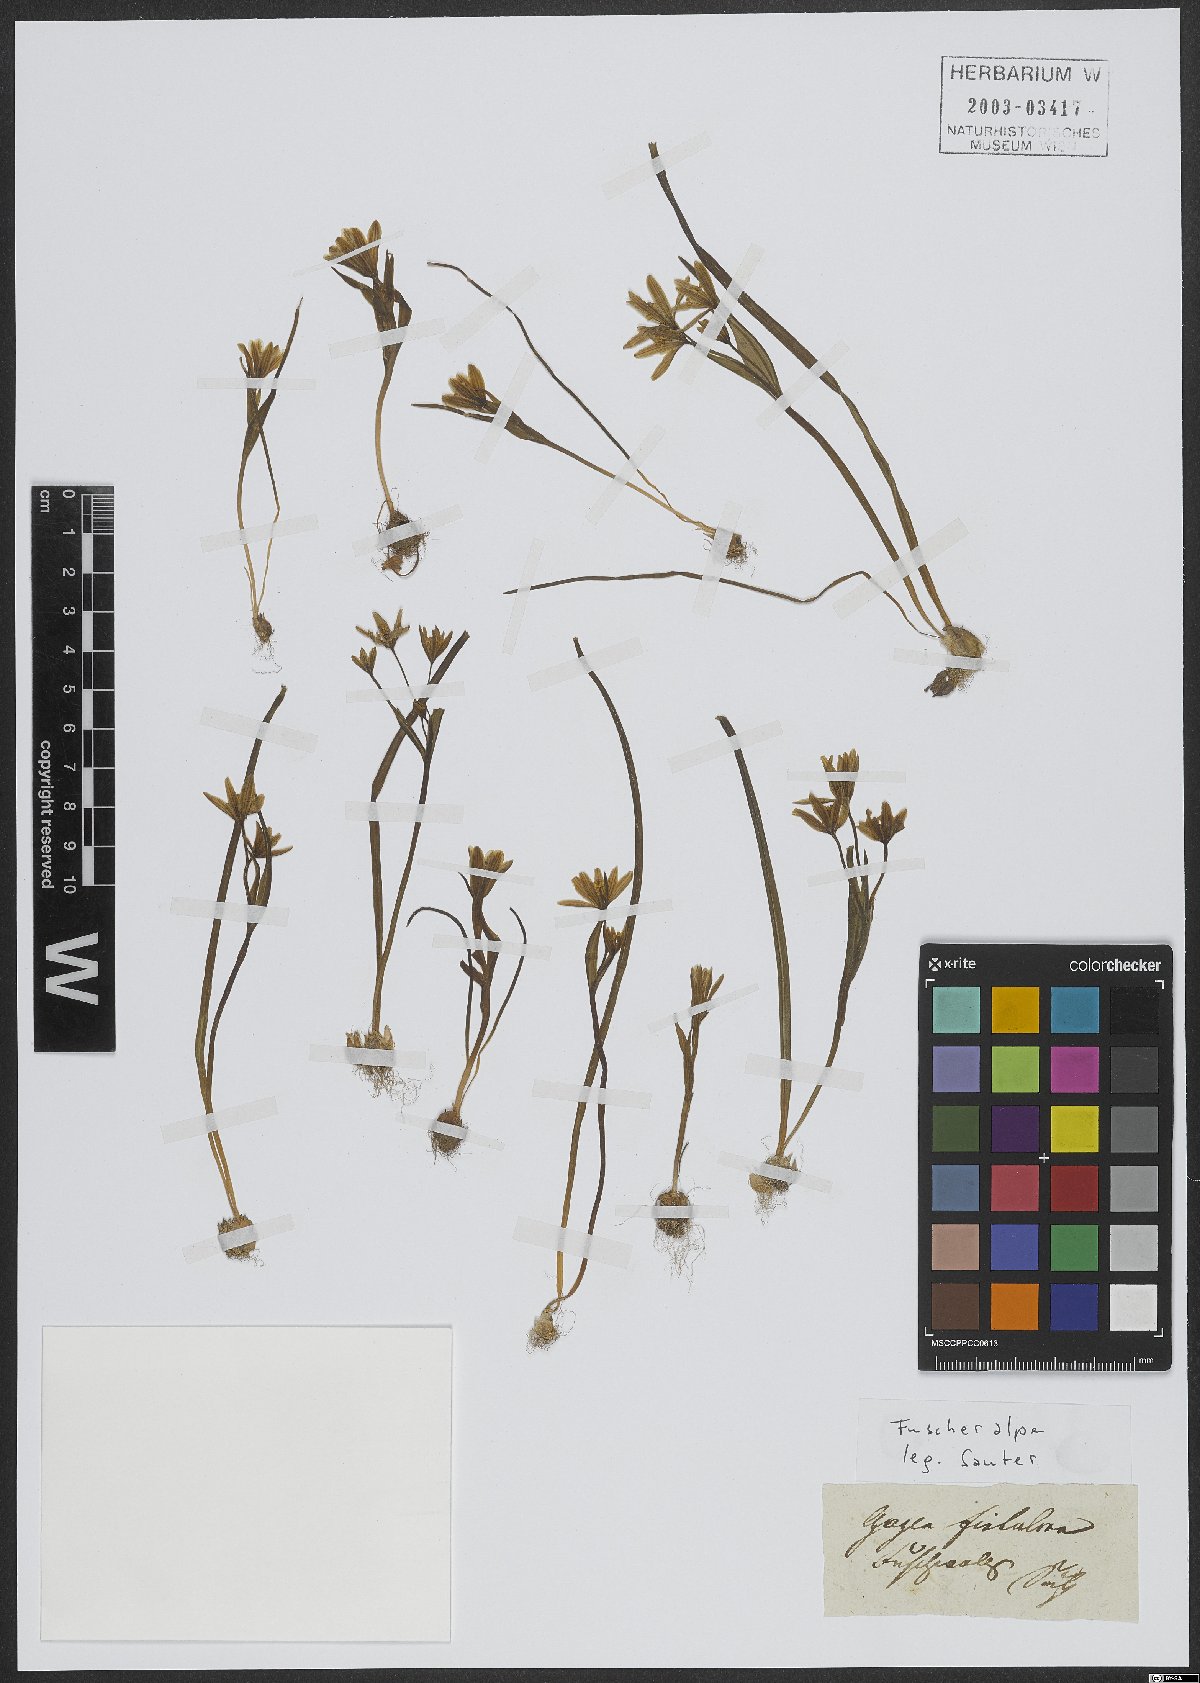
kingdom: Plantae
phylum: Tracheophyta
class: Liliopsida
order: Liliales
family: Liliaceae
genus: Gagea
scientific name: Gagea fragifera
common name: Lily
